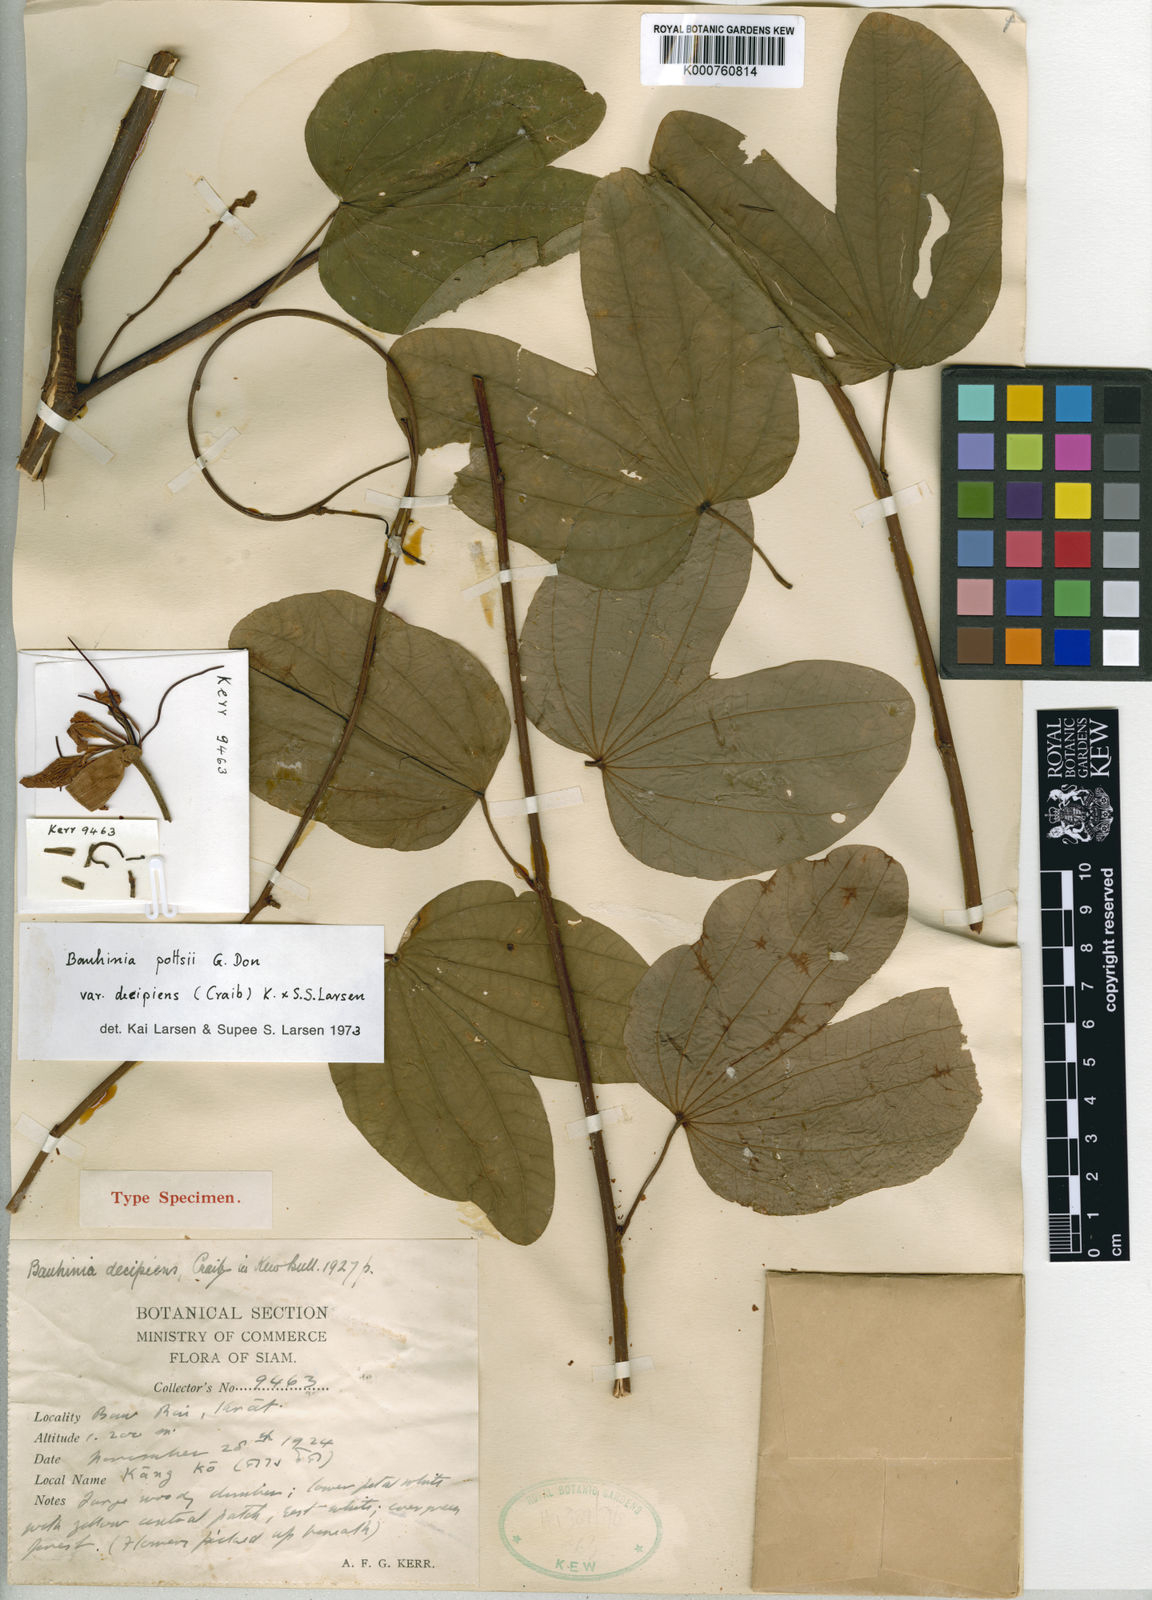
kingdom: Plantae
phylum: Tracheophyta
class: Magnoliopsida
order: Fabales
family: Fabaceae
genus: Bauhinia
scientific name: Bauhinia pottsii
